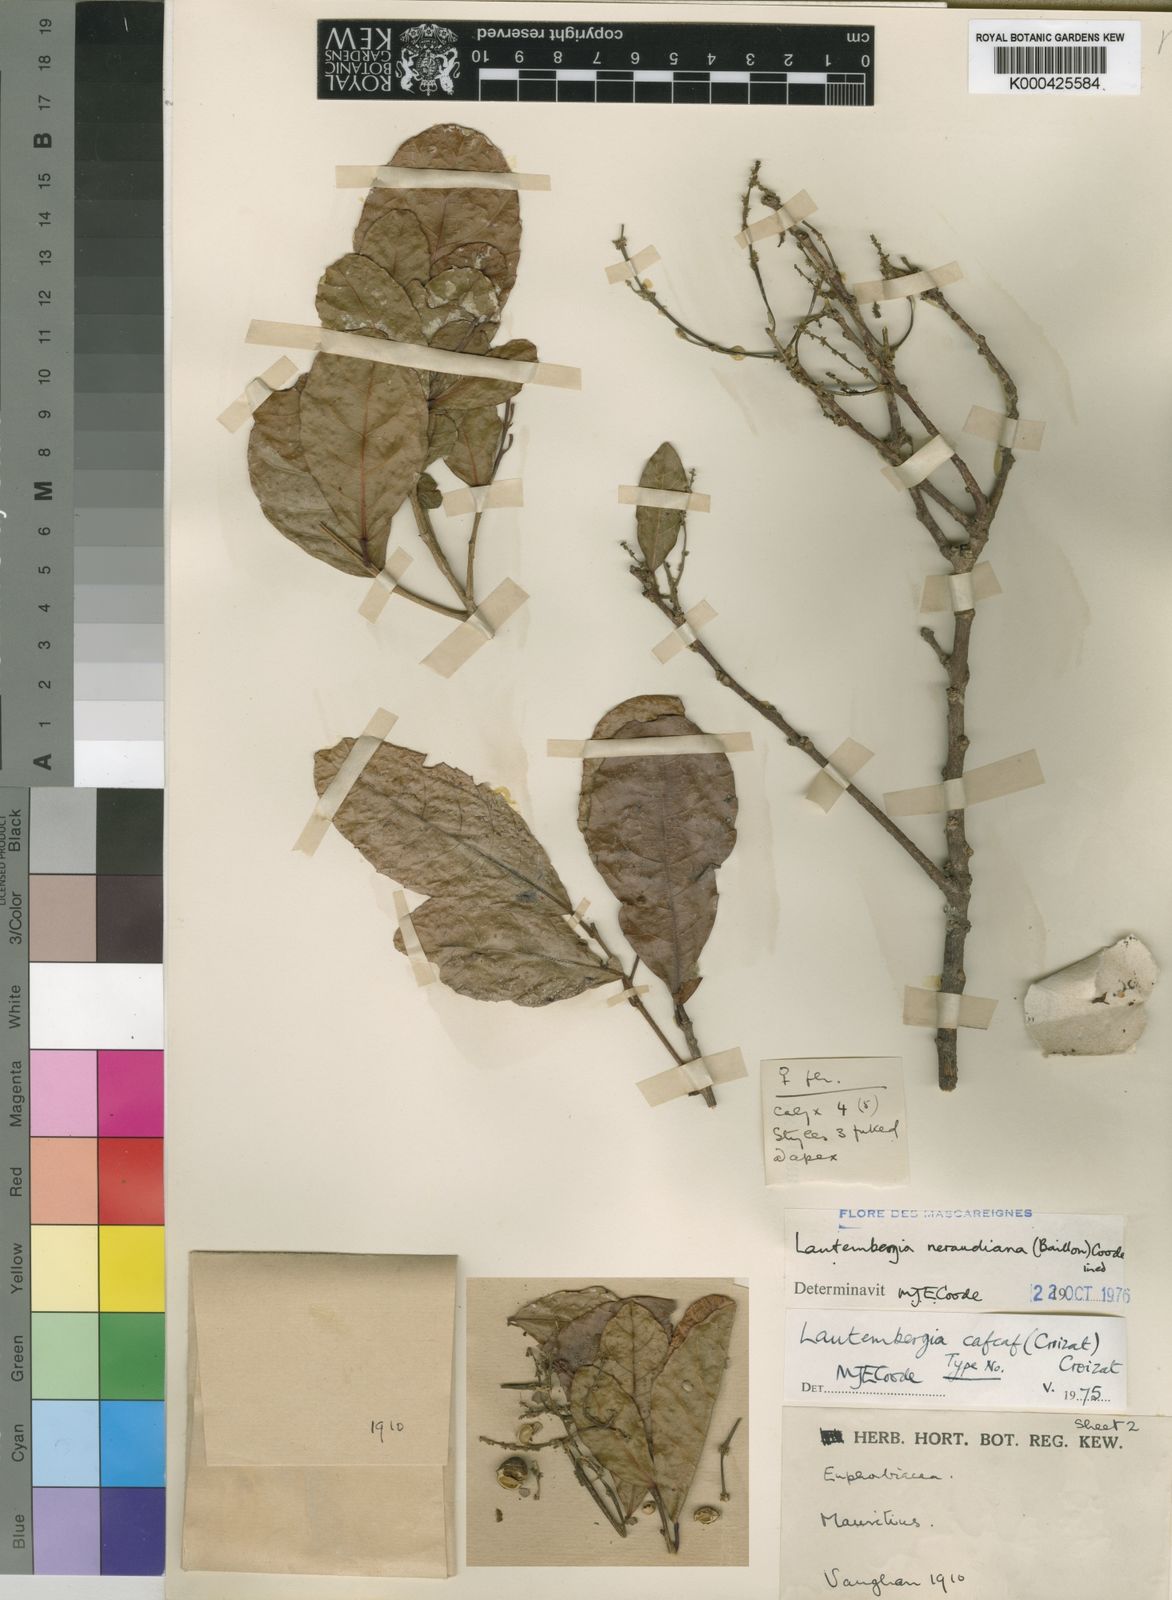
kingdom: Plantae
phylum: Tracheophyta
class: Magnoliopsida
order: Malpighiales
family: Euphorbiaceae
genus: Orfilea
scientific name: Orfilea neraudiana
